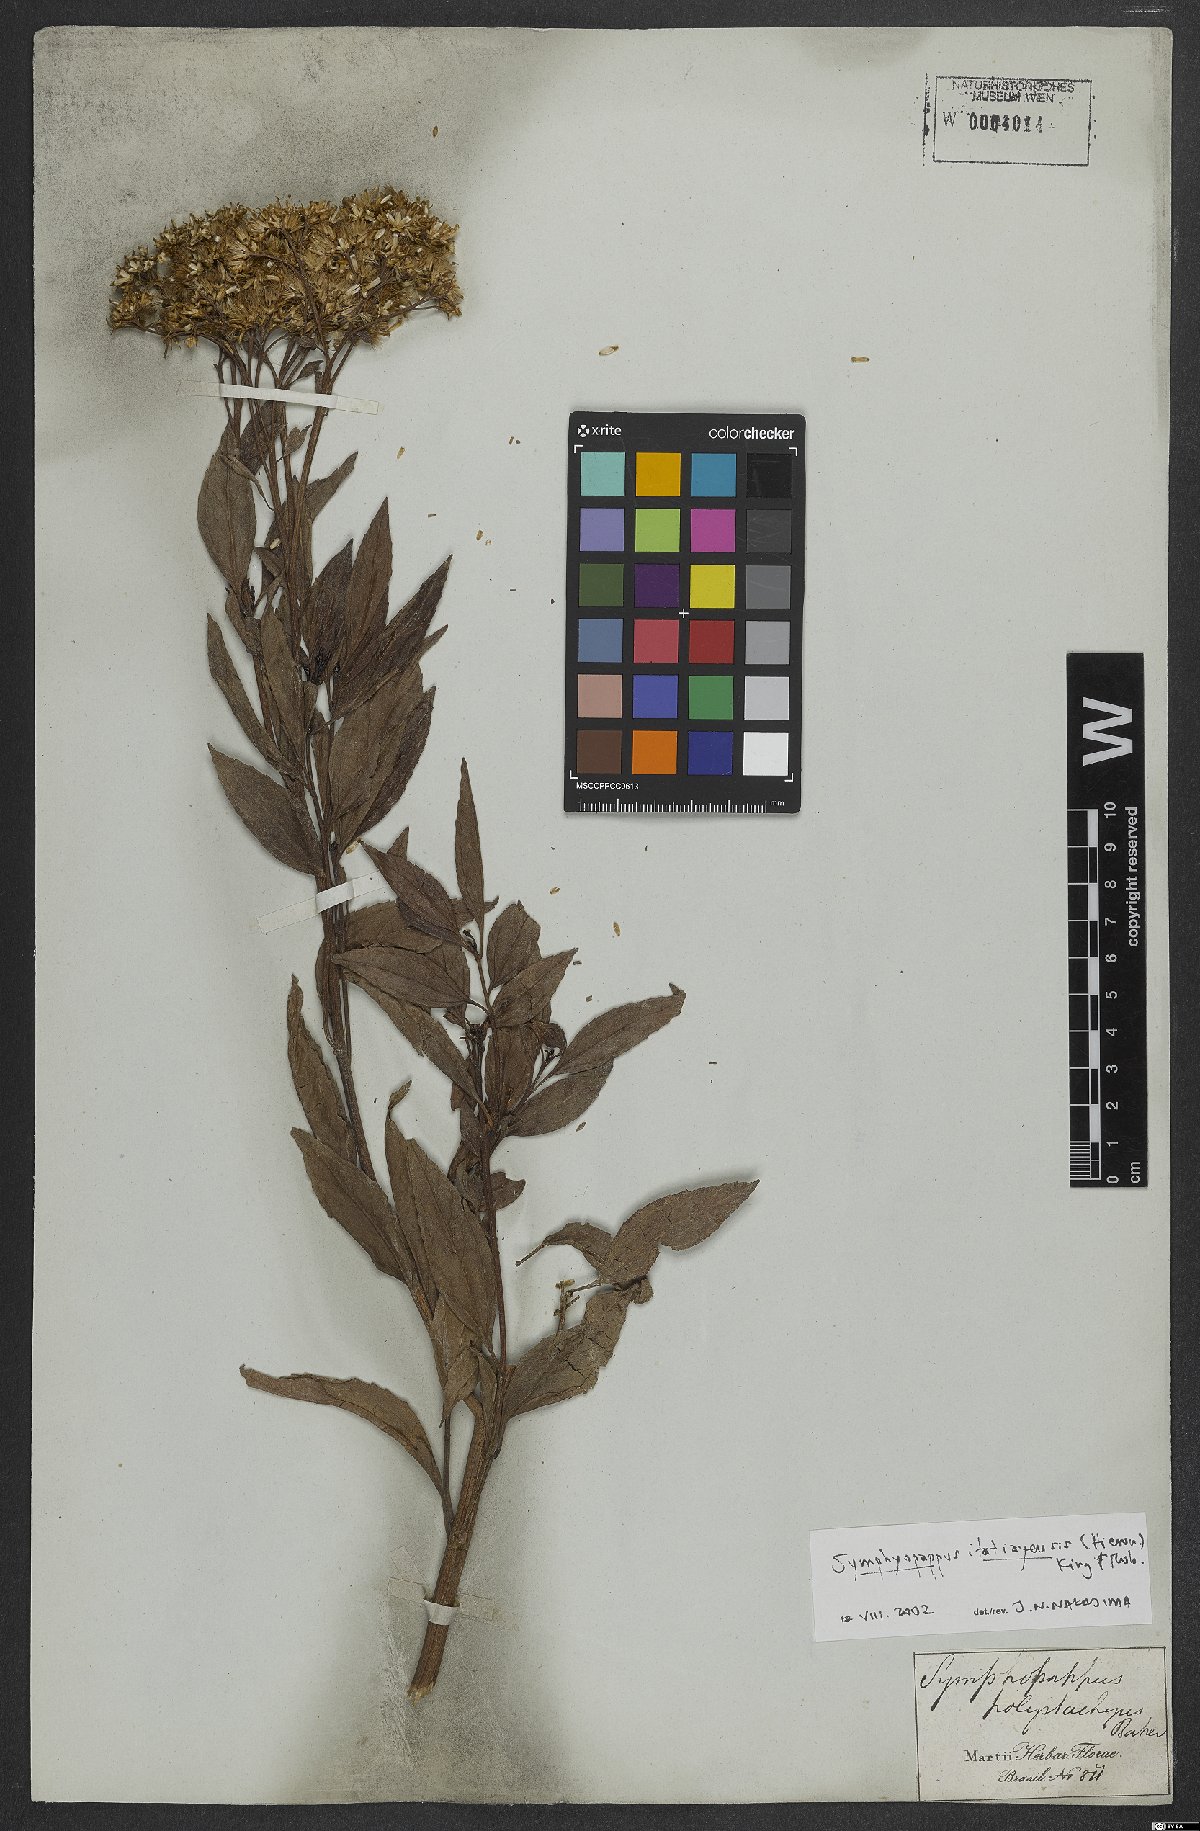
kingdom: Plantae
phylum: Tracheophyta
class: Magnoliopsida
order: Asterales
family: Asteraceae
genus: Symphyopappus
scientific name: Symphyopappus itatiayensis
